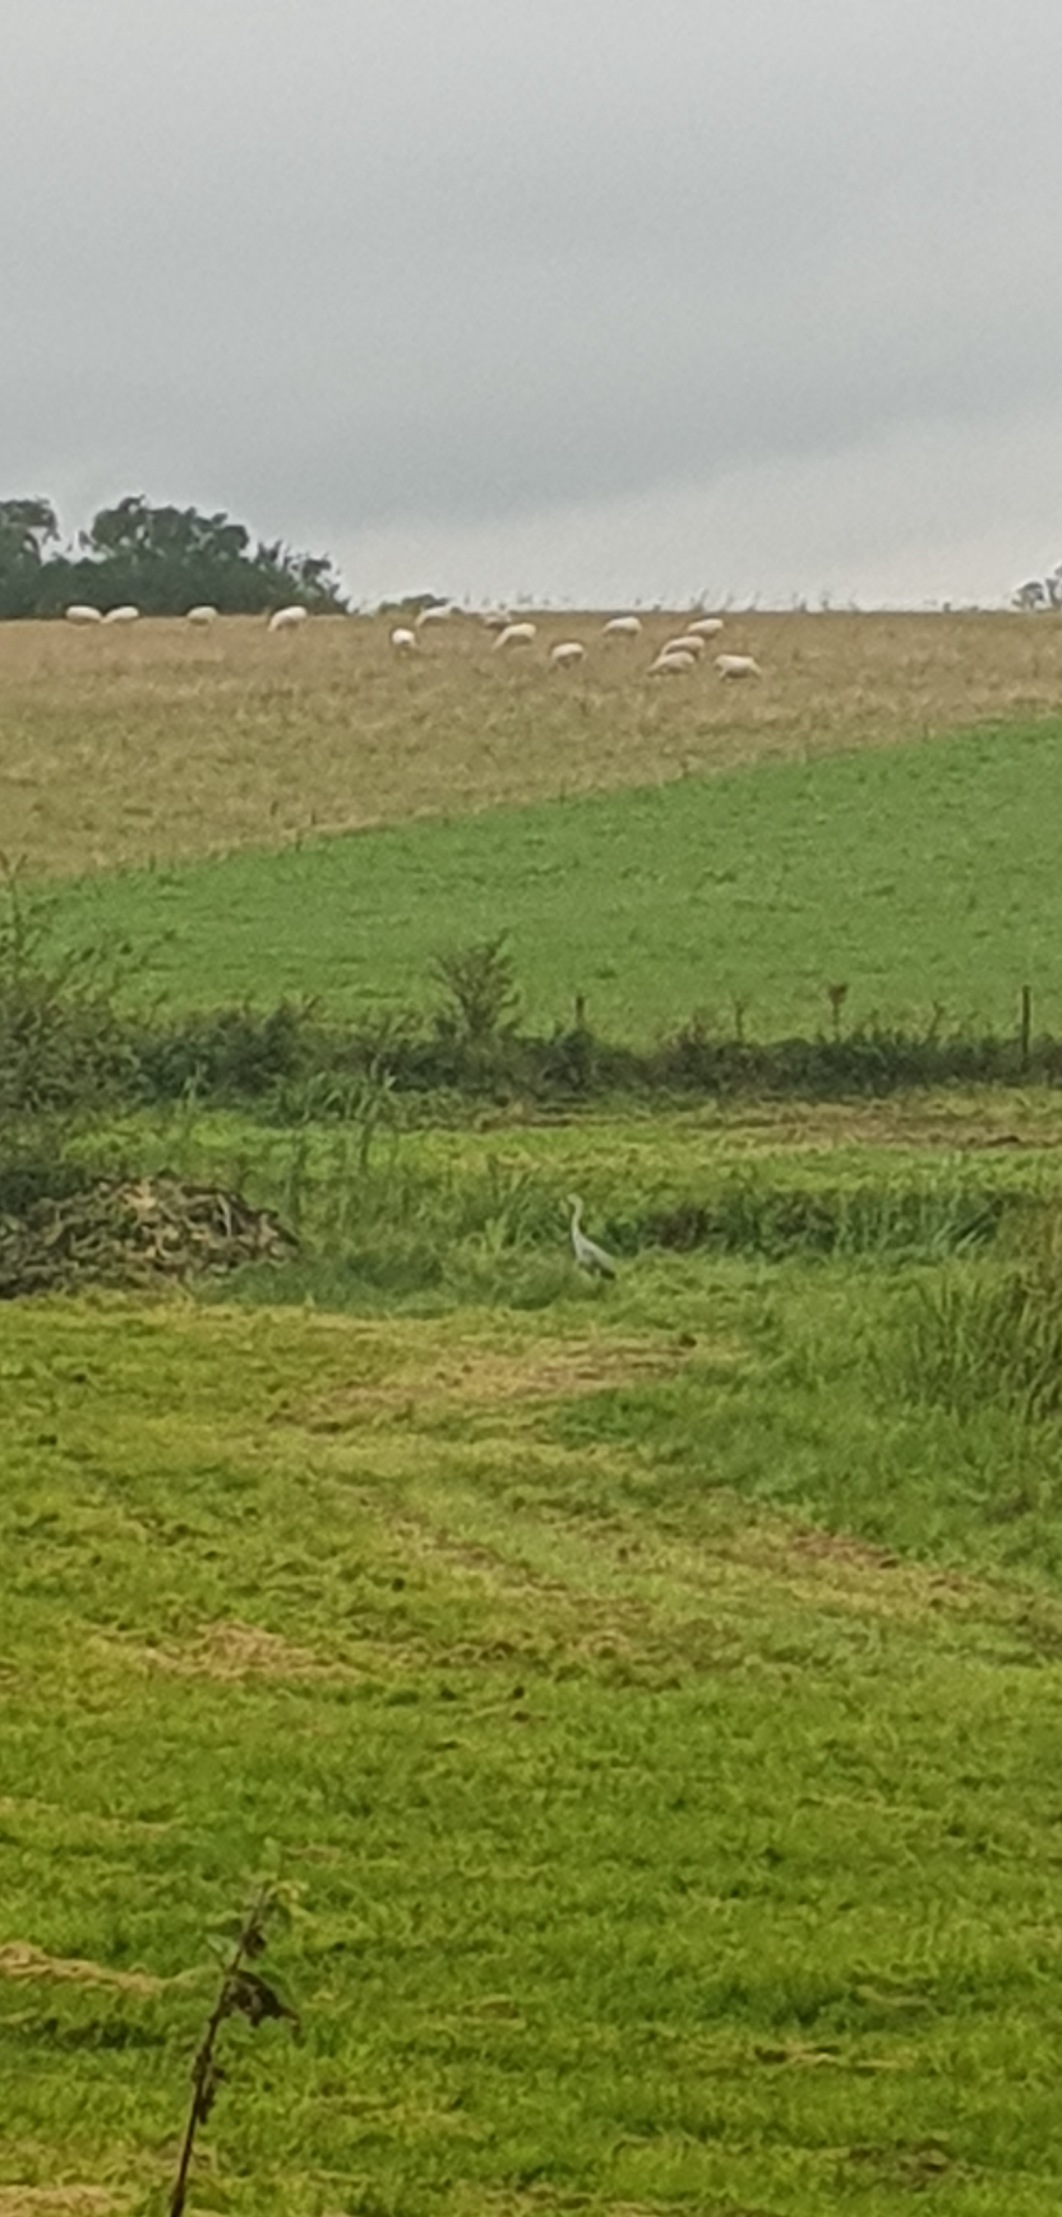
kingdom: Animalia
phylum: Chordata
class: Aves
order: Pelecaniformes
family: Ardeidae
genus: Ardea
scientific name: Ardea cinerea
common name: Fiskehejre
